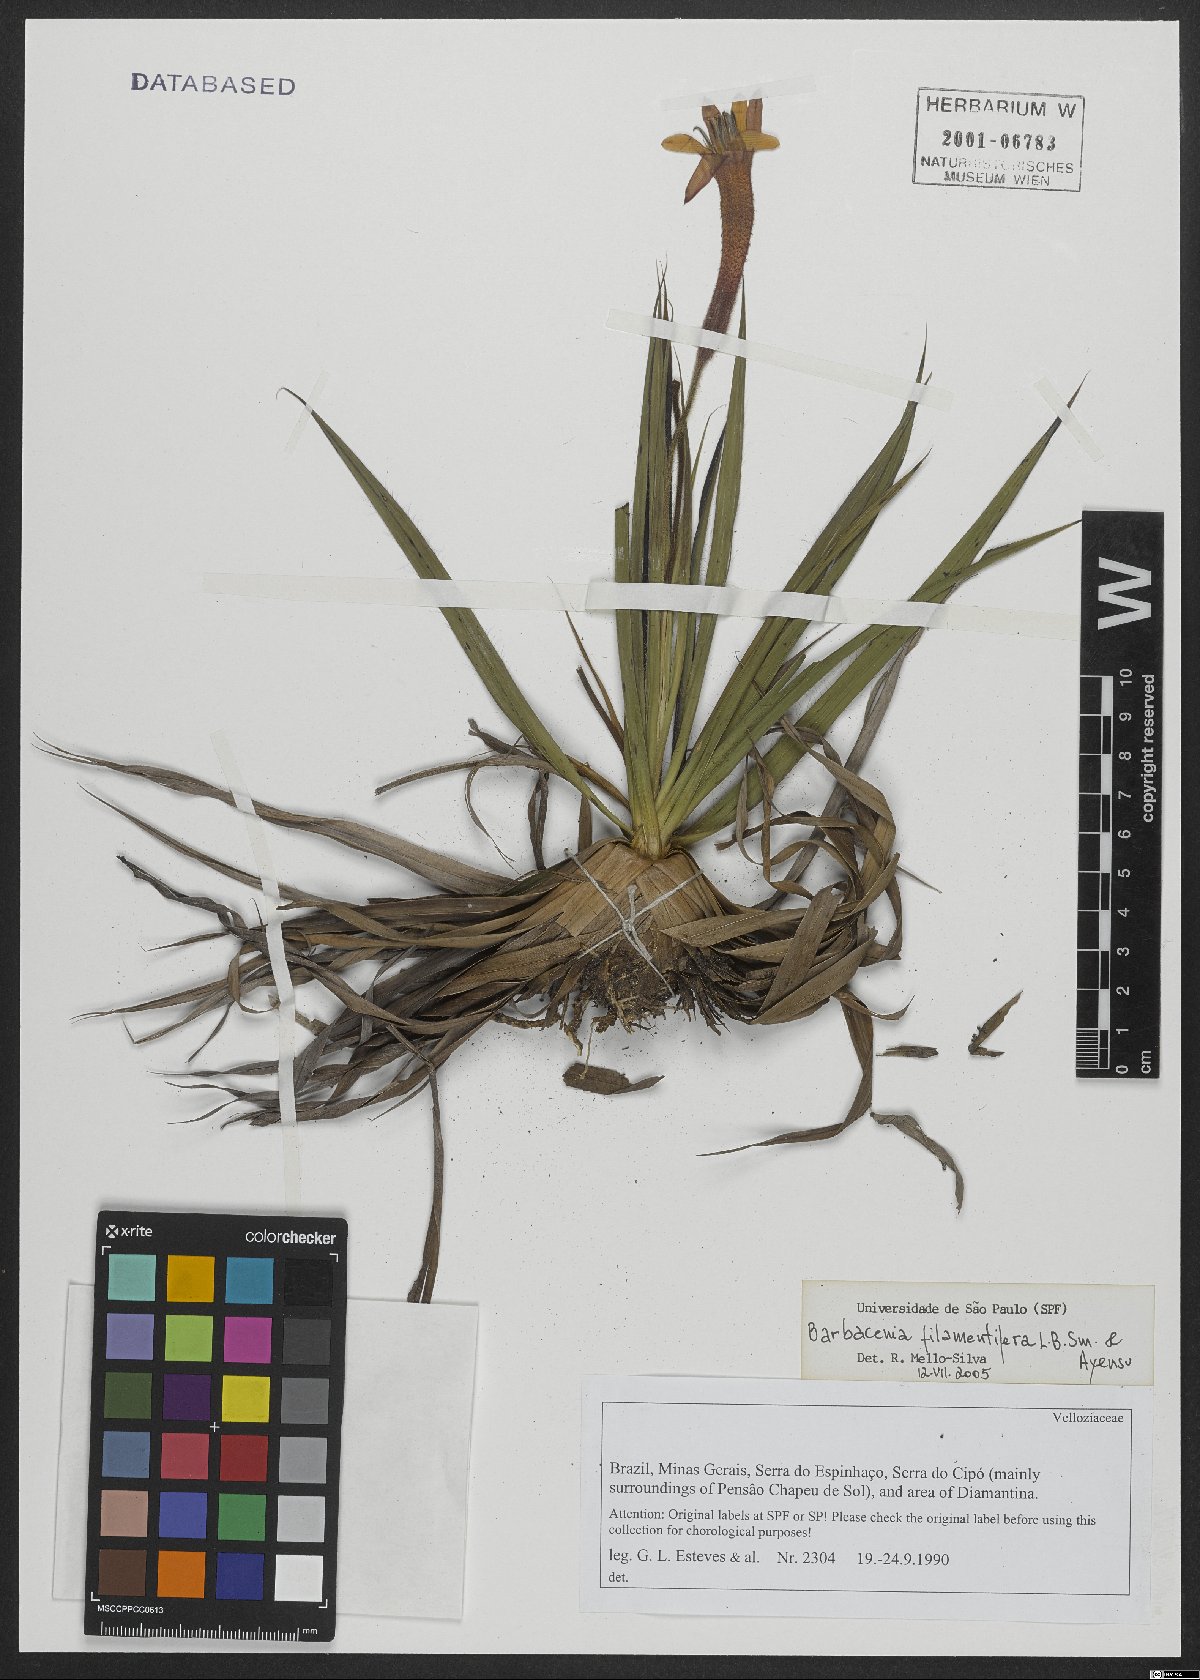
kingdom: Plantae
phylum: Tracheophyta
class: Liliopsida
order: Pandanales
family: Velloziaceae
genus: Barbacenia
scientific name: Barbacenia filamentifera
